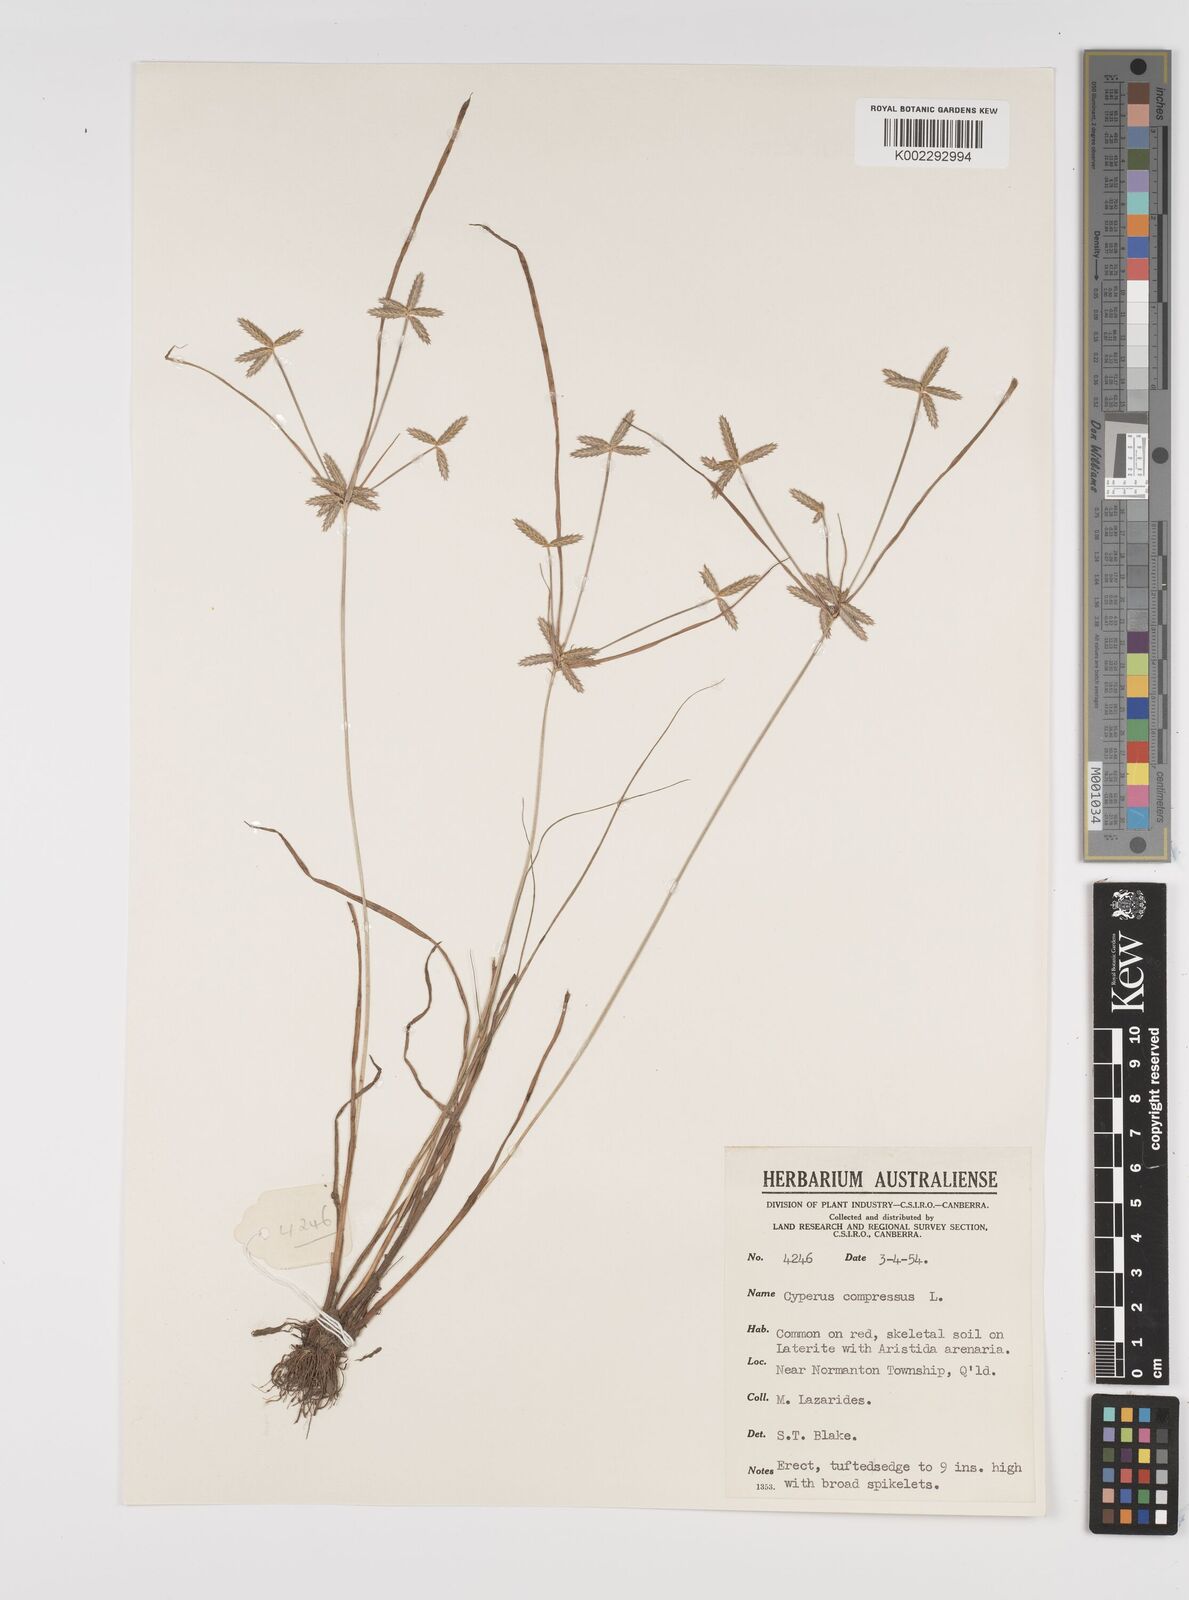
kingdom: Plantae
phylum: Tracheophyta
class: Liliopsida
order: Poales
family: Cyperaceae
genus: Cyperus
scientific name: Cyperus compressus
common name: Poorland flatsedge
